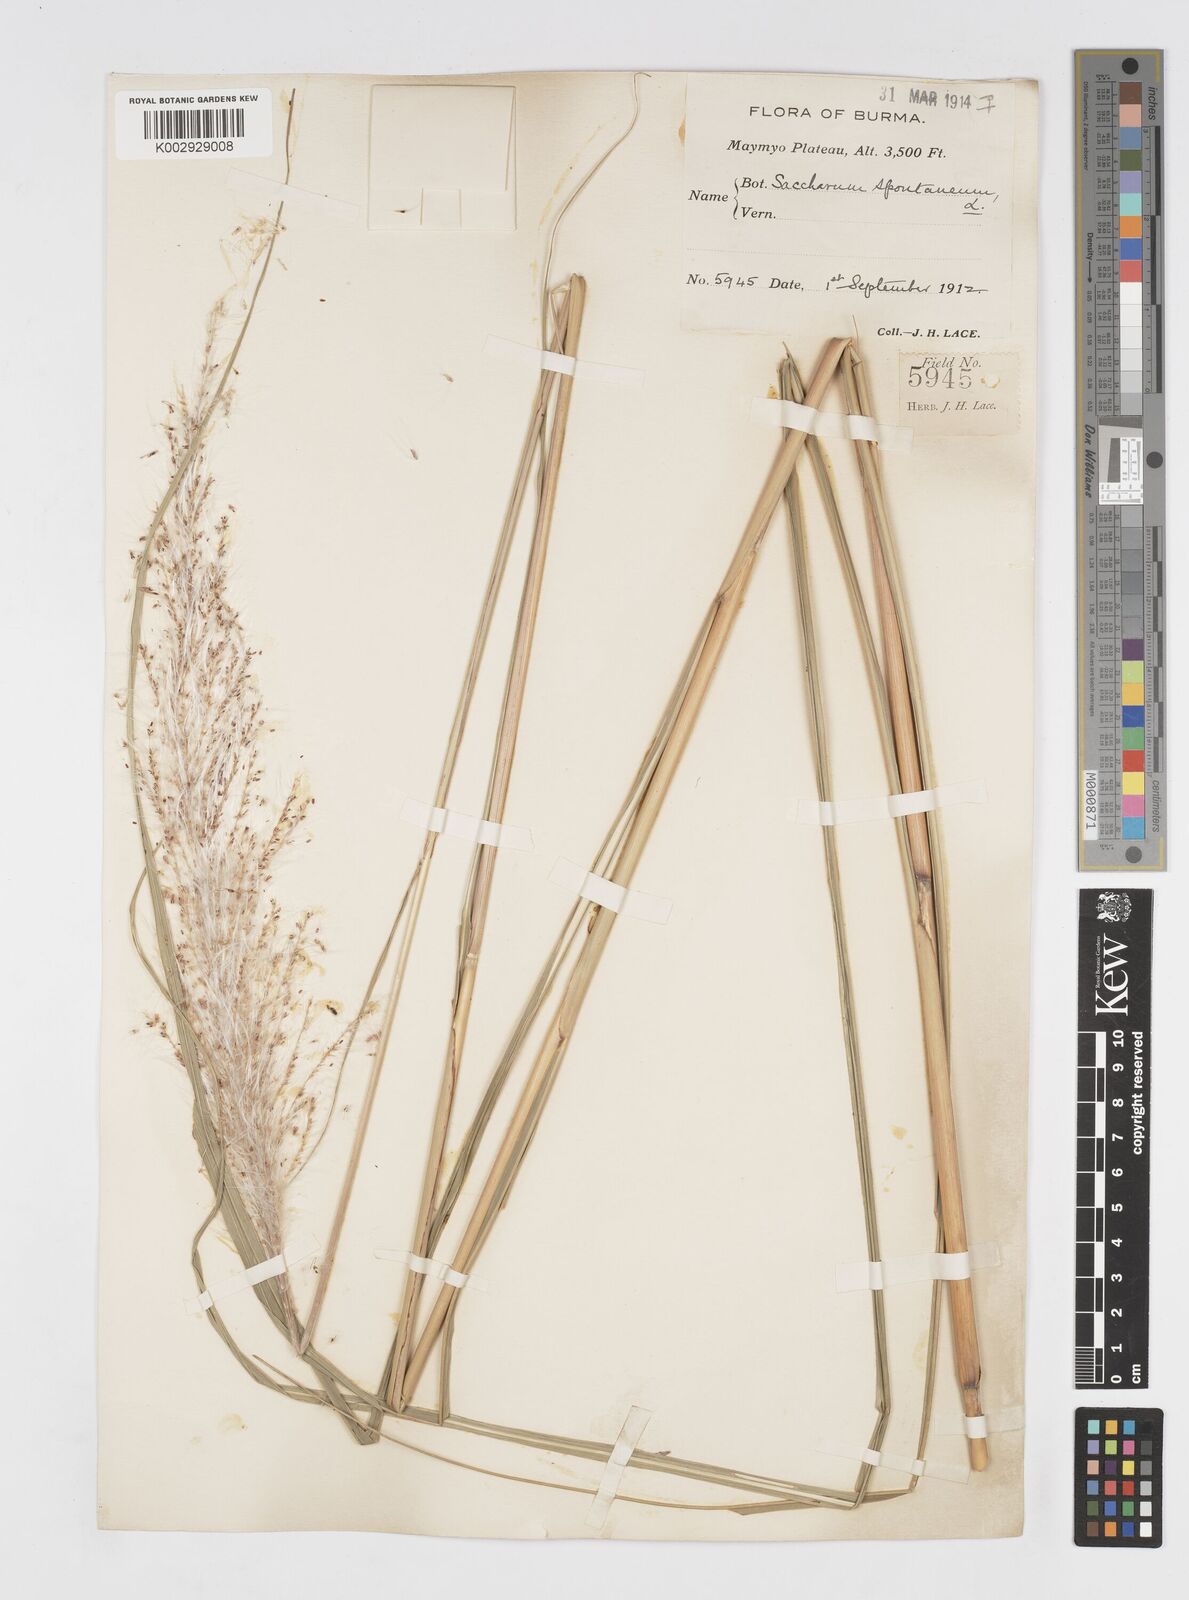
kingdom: Plantae
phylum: Tracheophyta
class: Liliopsida
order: Poales
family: Poaceae
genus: Saccharum
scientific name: Saccharum spontaneum
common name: Wild sugarcane
